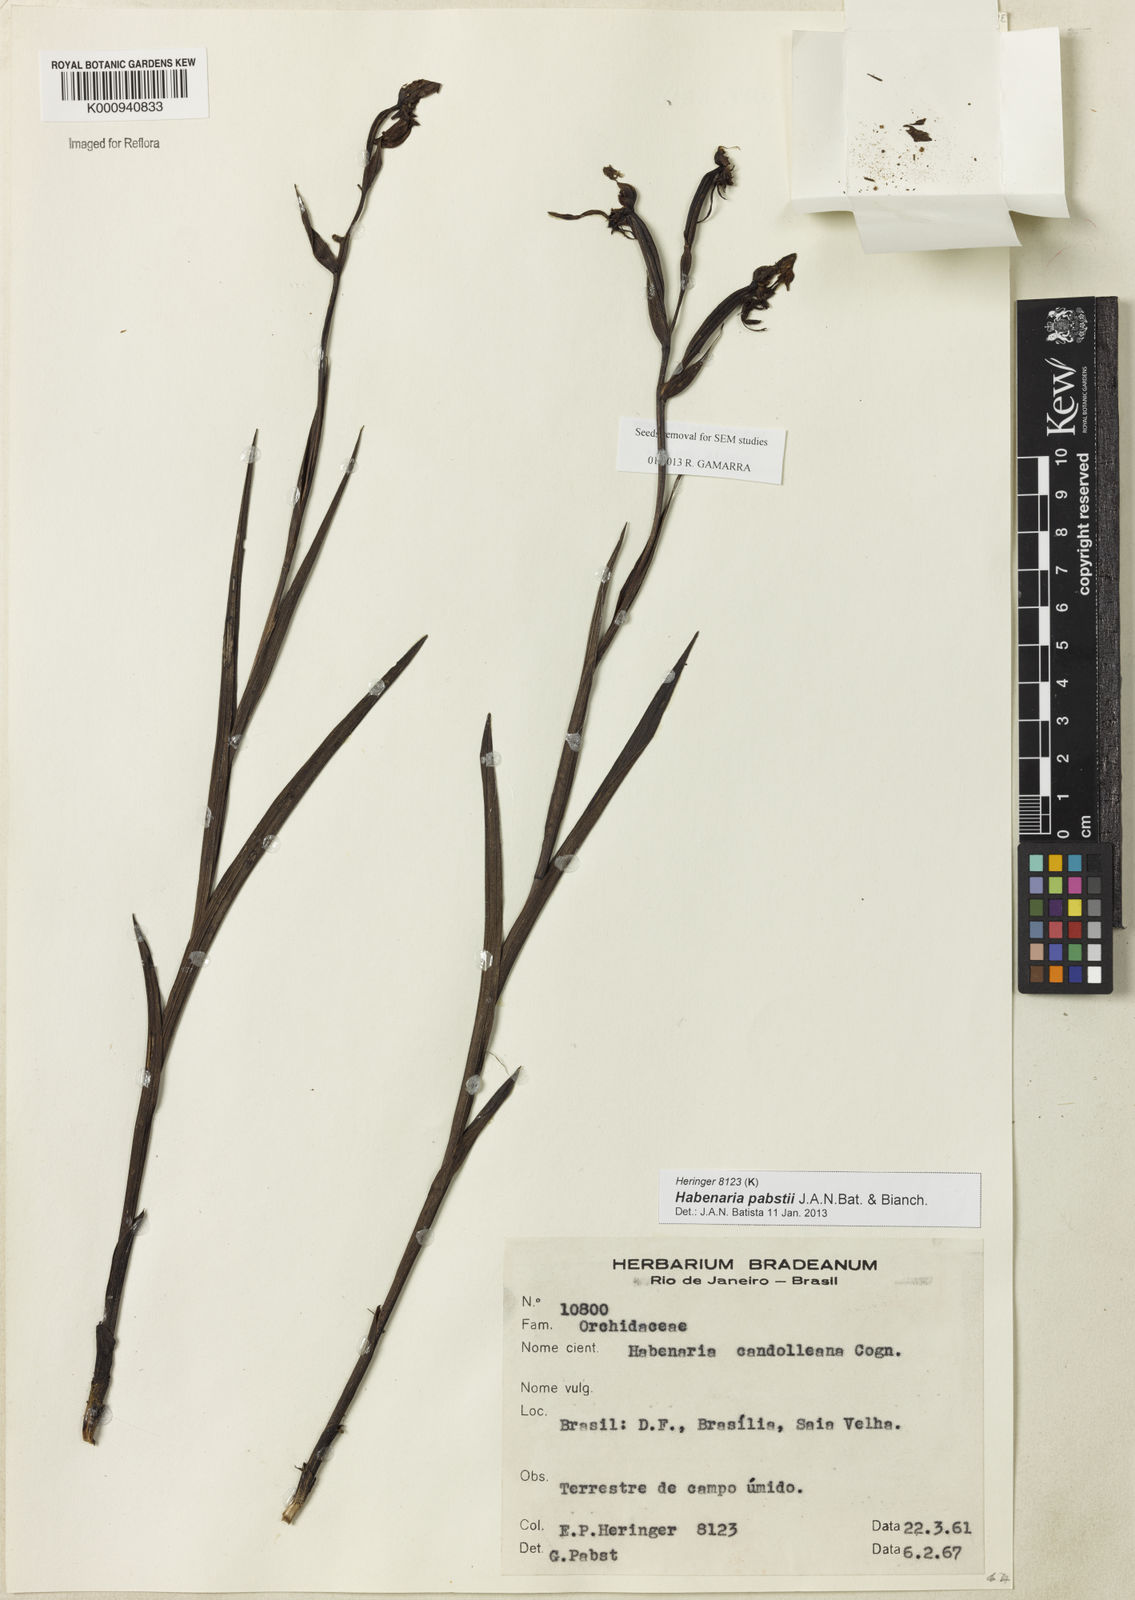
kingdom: Plantae
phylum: Tracheophyta
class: Liliopsida
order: Asparagales
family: Orchidaceae
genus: Habenaria
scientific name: Habenaria pabstii
